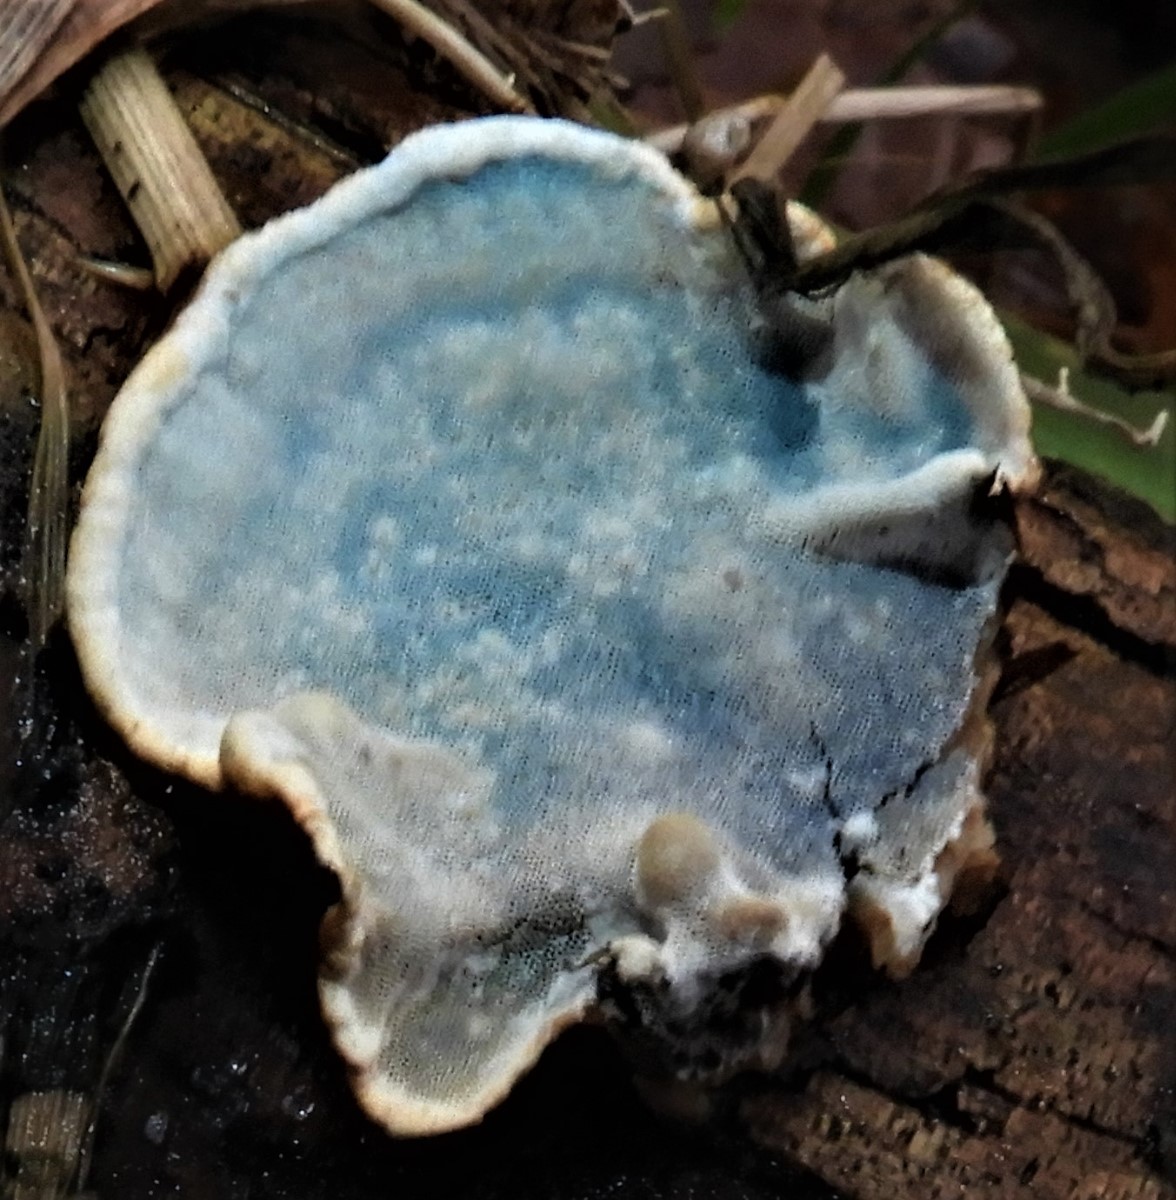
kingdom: Fungi
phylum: Basidiomycota
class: Agaricomycetes
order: Polyporales
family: Incrustoporiaceae
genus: Skeletocutis
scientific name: Skeletocutis nemoralis
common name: stor krystalporesvamp
